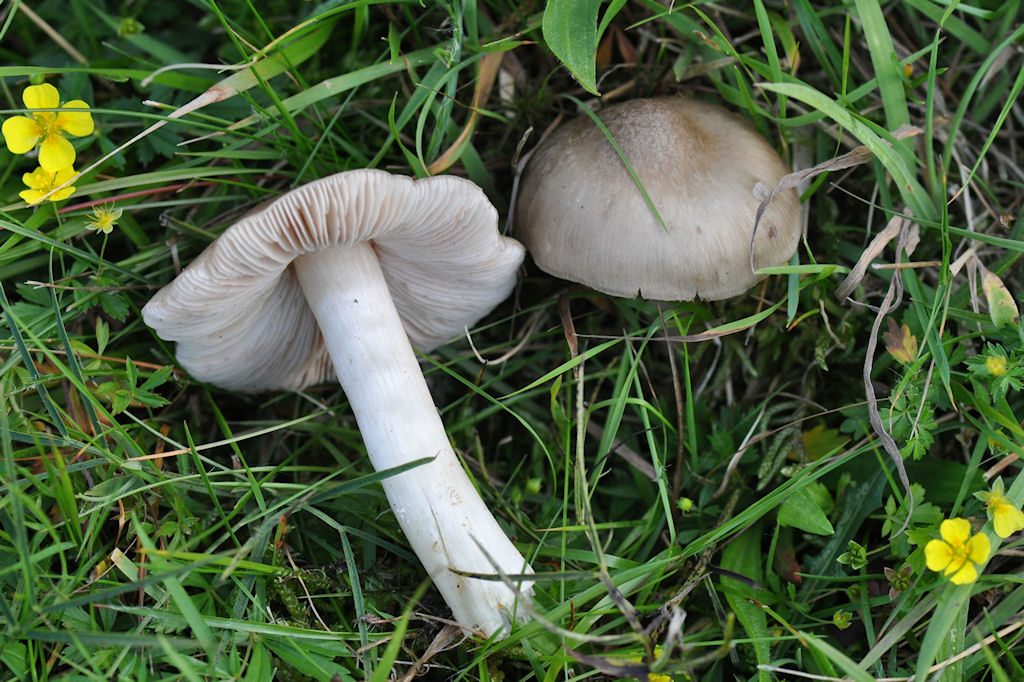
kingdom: Fungi
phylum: Basidiomycota
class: Agaricomycetes
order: Agaricales
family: Entolomataceae
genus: Entoloma
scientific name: Entoloma prunuloides
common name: mel-rødblad
